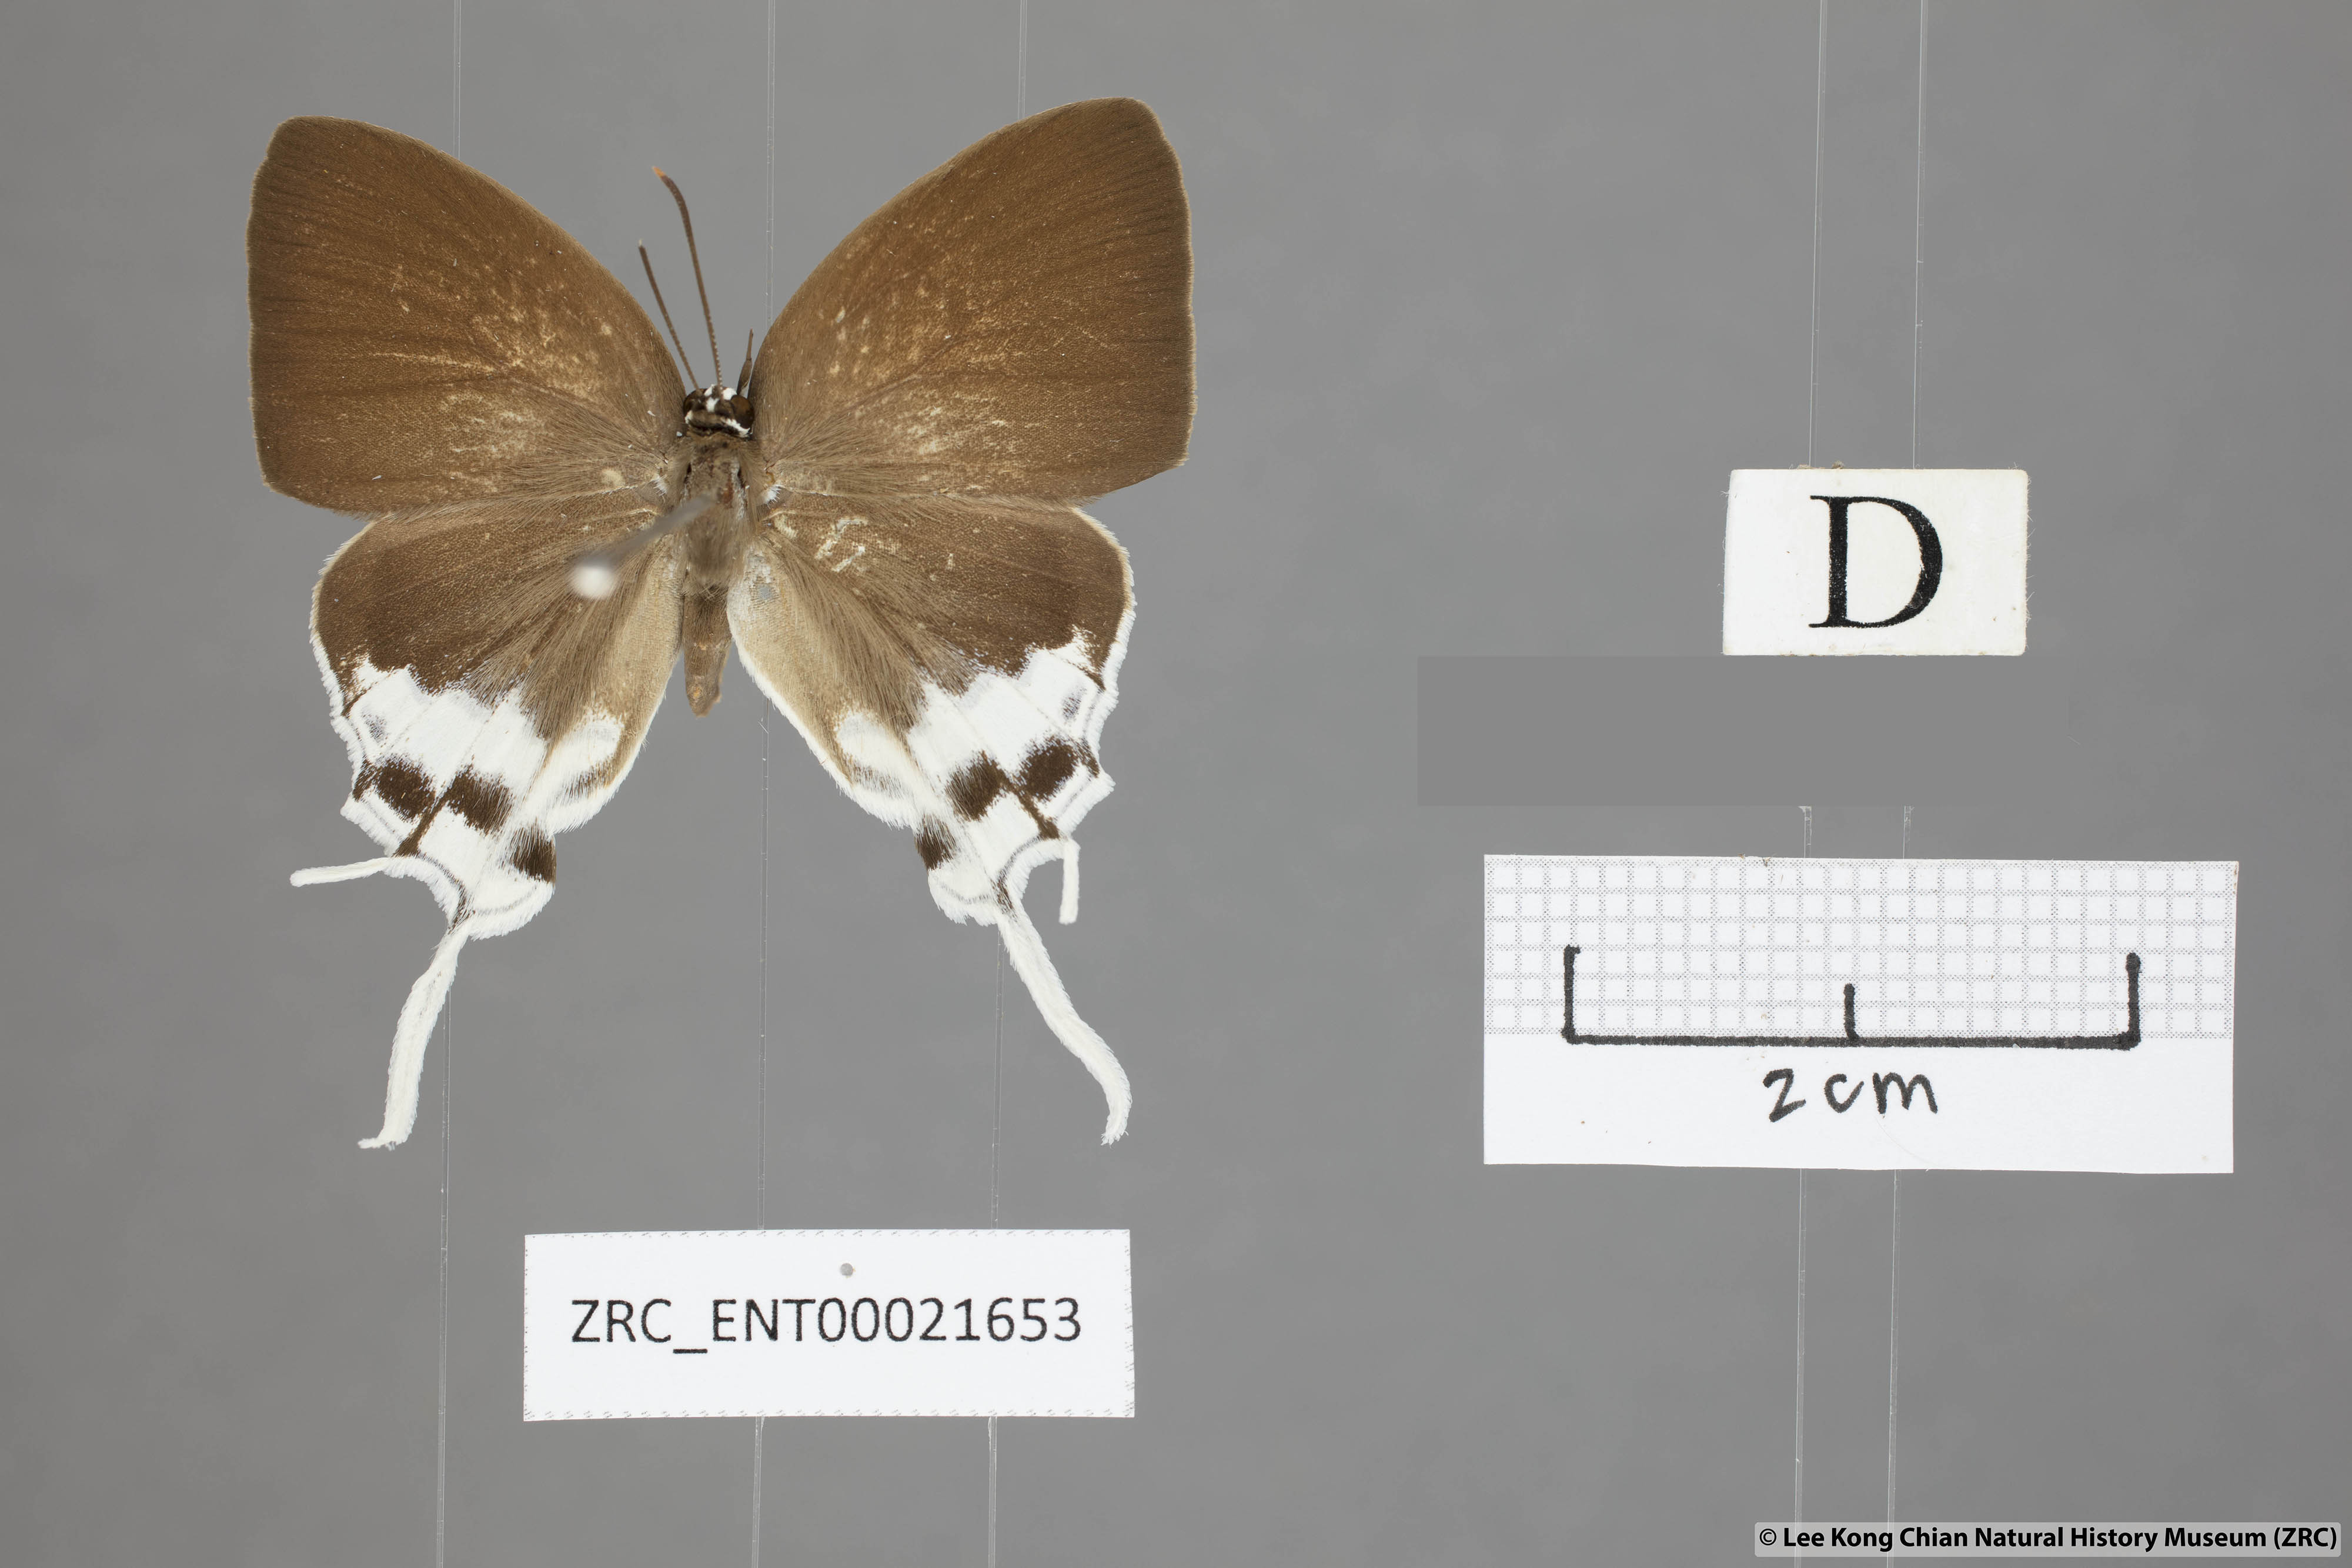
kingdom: Animalia
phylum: Arthropoda
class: Insecta
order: Lepidoptera
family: Lycaenidae
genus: Thrix
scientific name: Thrix
